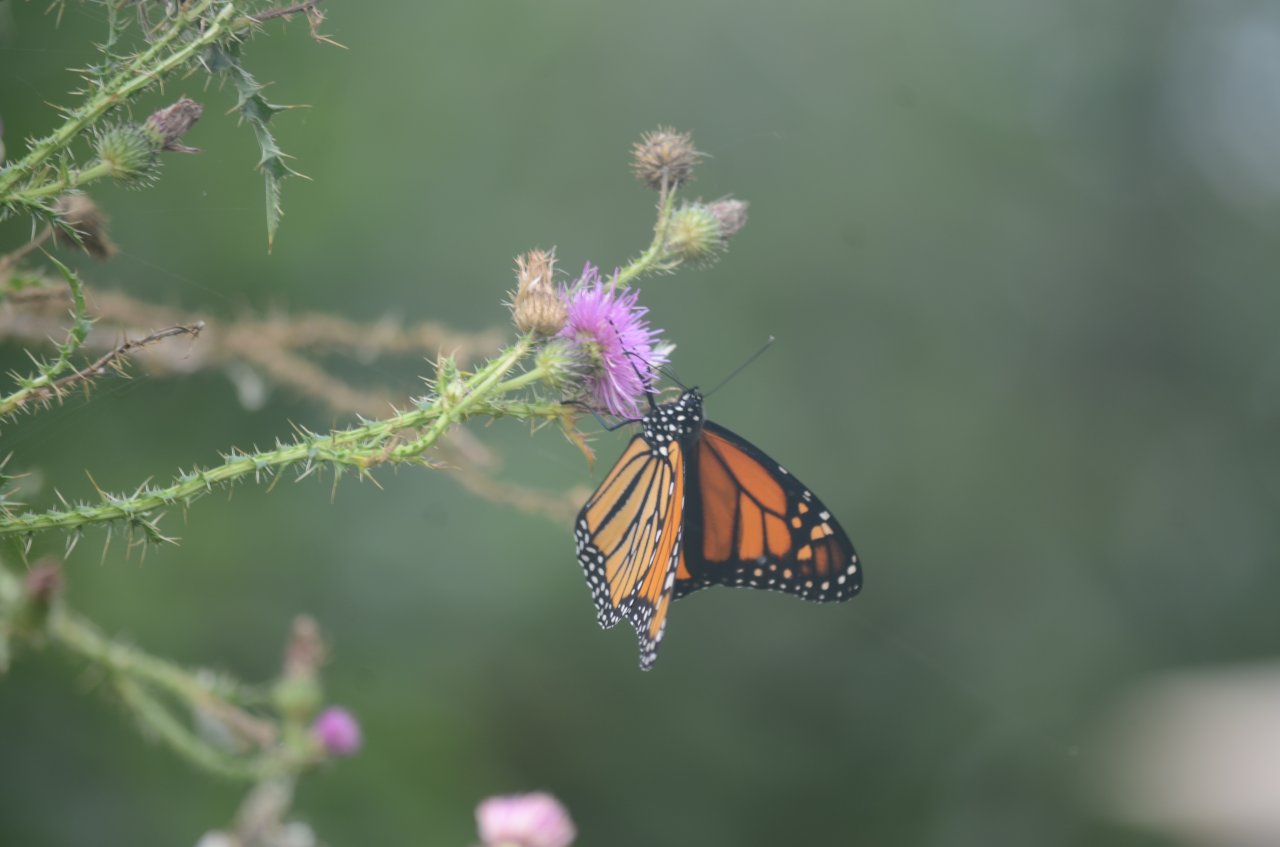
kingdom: Animalia
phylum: Arthropoda
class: Insecta
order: Lepidoptera
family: Nymphalidae
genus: Danaus
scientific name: Danaus plexippus
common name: Monarch
